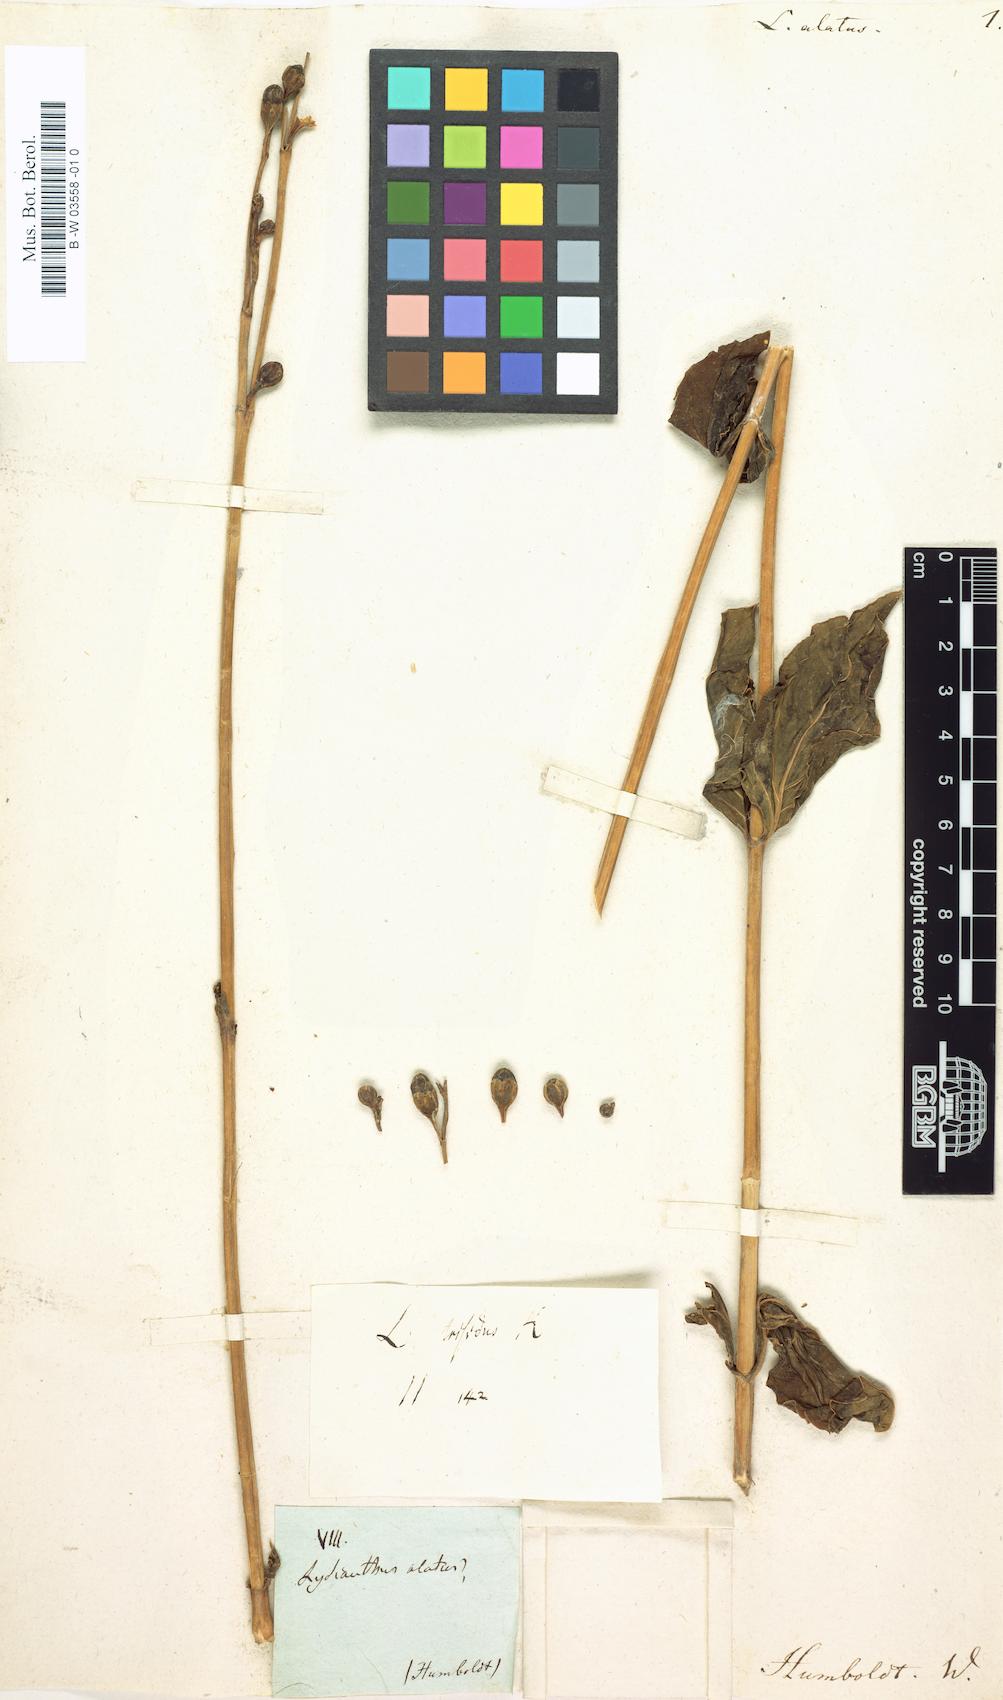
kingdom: Plantae
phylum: Tracheophyta
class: Magnoliopsida
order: Gentianales
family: Gentianaceae
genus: Chelonanthus
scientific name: Chelonanthus alatus
